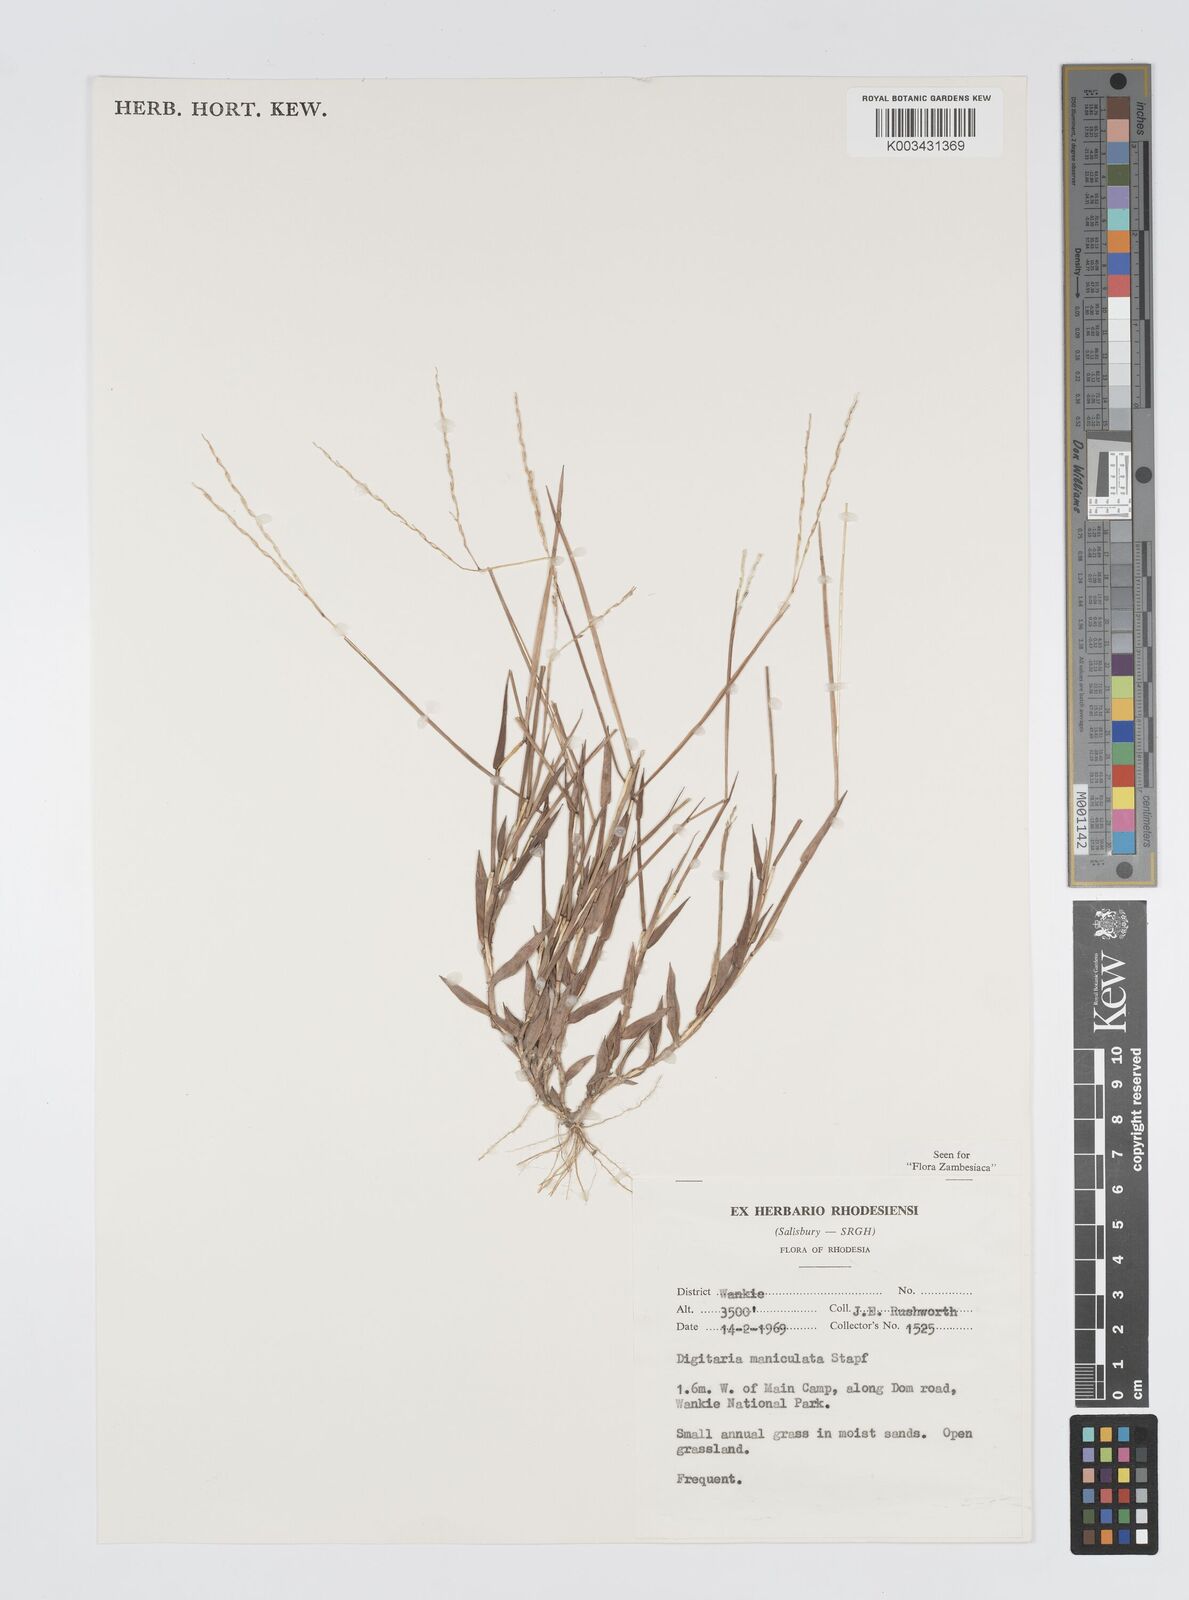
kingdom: Plantae
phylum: Tracheophyta
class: Liliopsida
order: Poales
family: Poaceae
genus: Digitaria
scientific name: Digitaria maniculata
